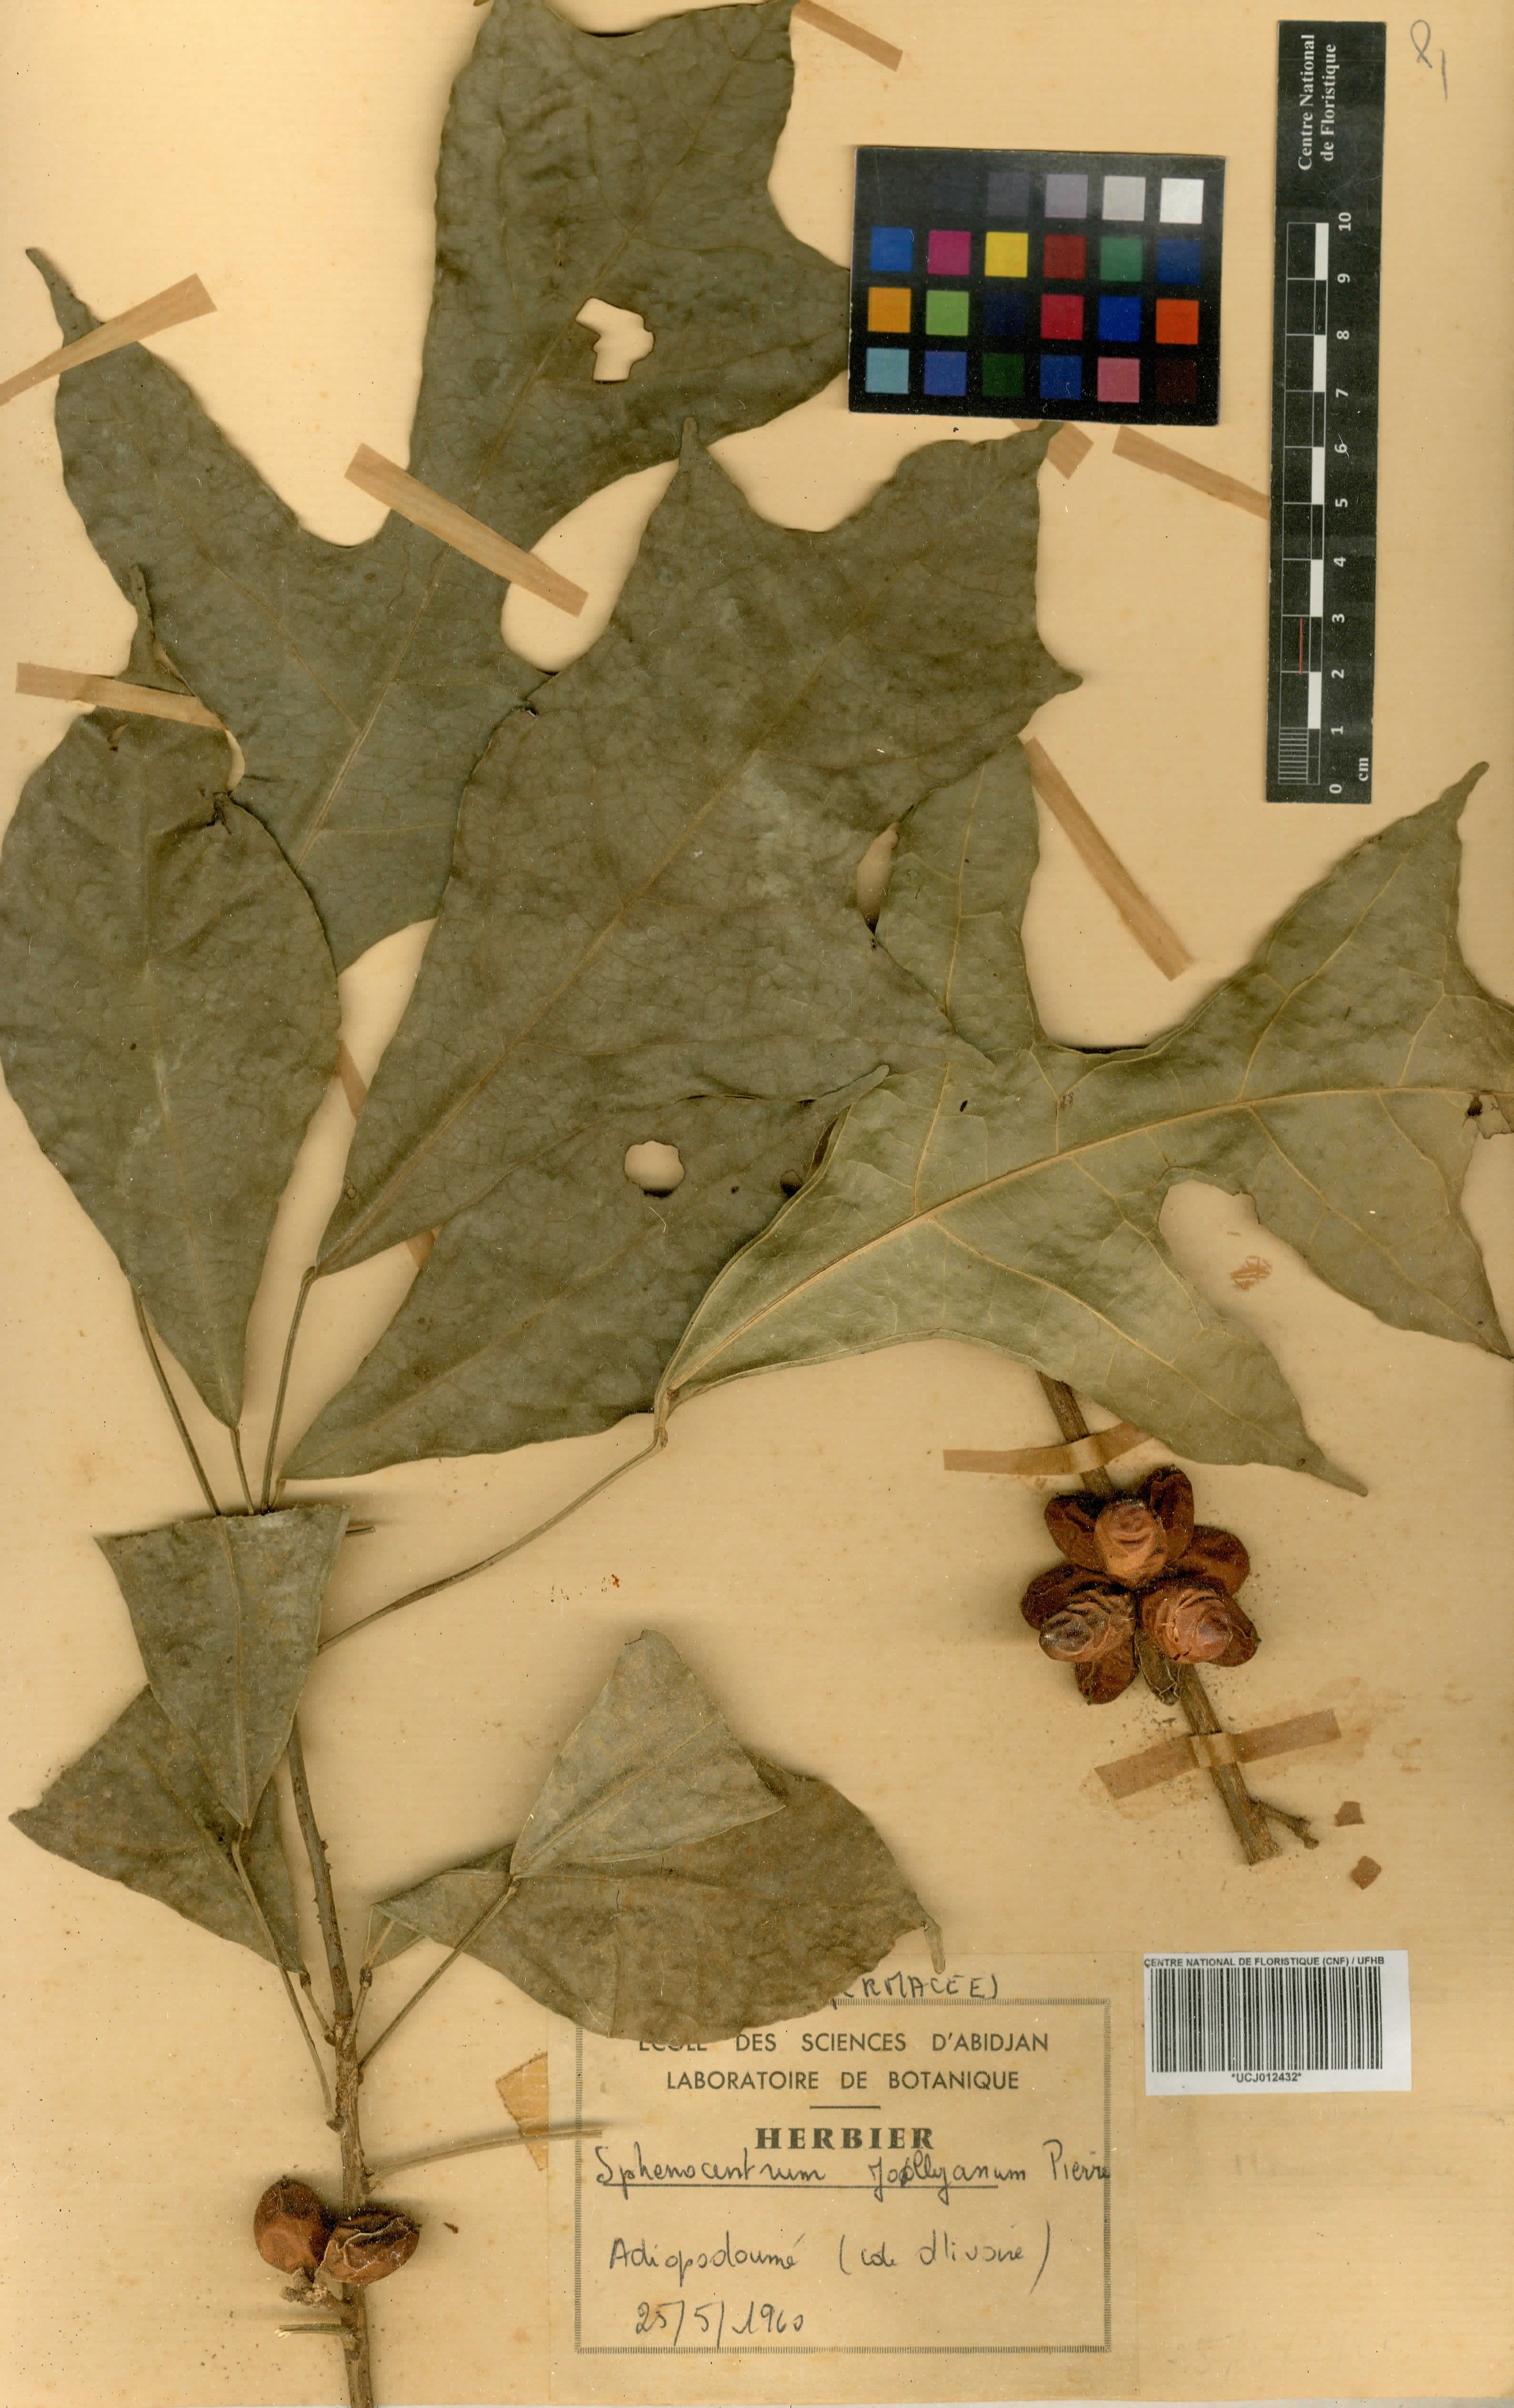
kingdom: Plantae
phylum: Tracheophyta
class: Magnoliopsida
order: Ranunculales
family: Menispermaceae
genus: Sphenocentrum
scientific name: Sphenocentrum jollyanum
